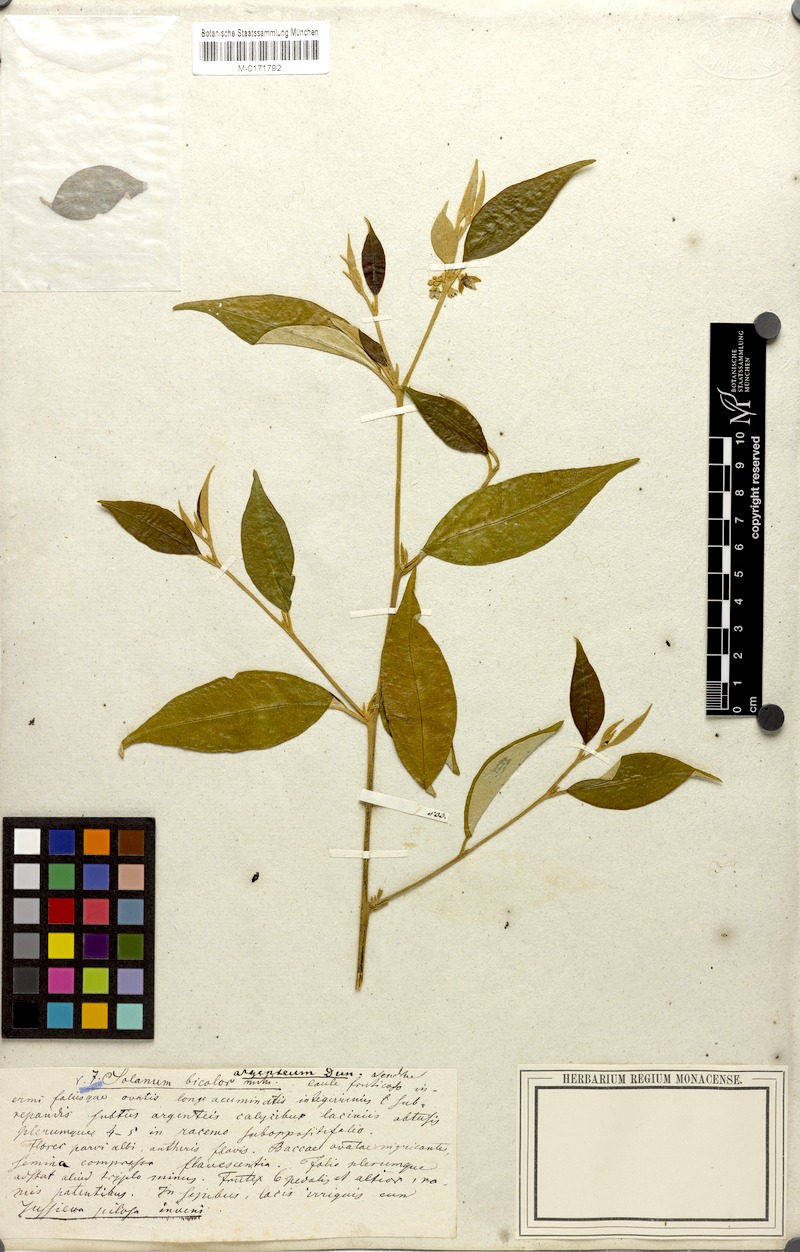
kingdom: Plantae
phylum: Tracheophyta
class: Magnoliopsida
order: Solanales
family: Solanaceae
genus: Solanum
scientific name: Solanum argenteum
